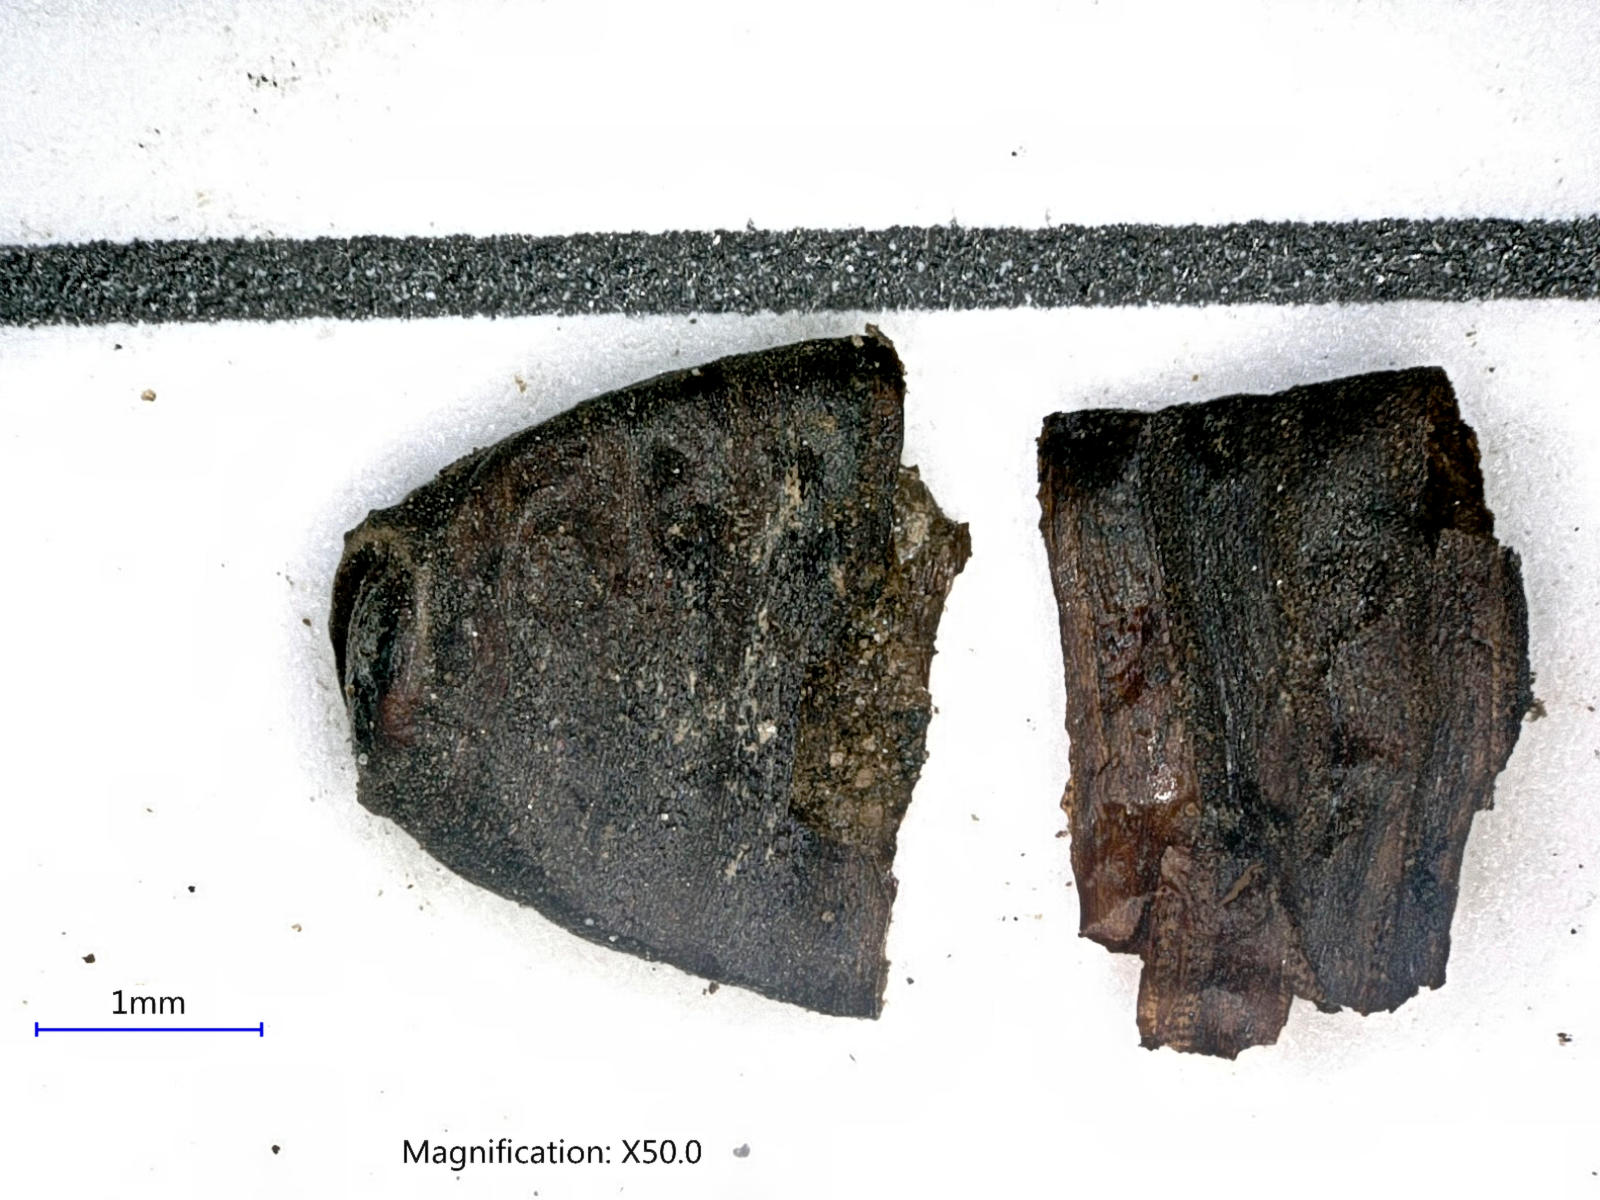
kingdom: Animalia
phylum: Arthropoda
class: Insecta
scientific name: Insecta
